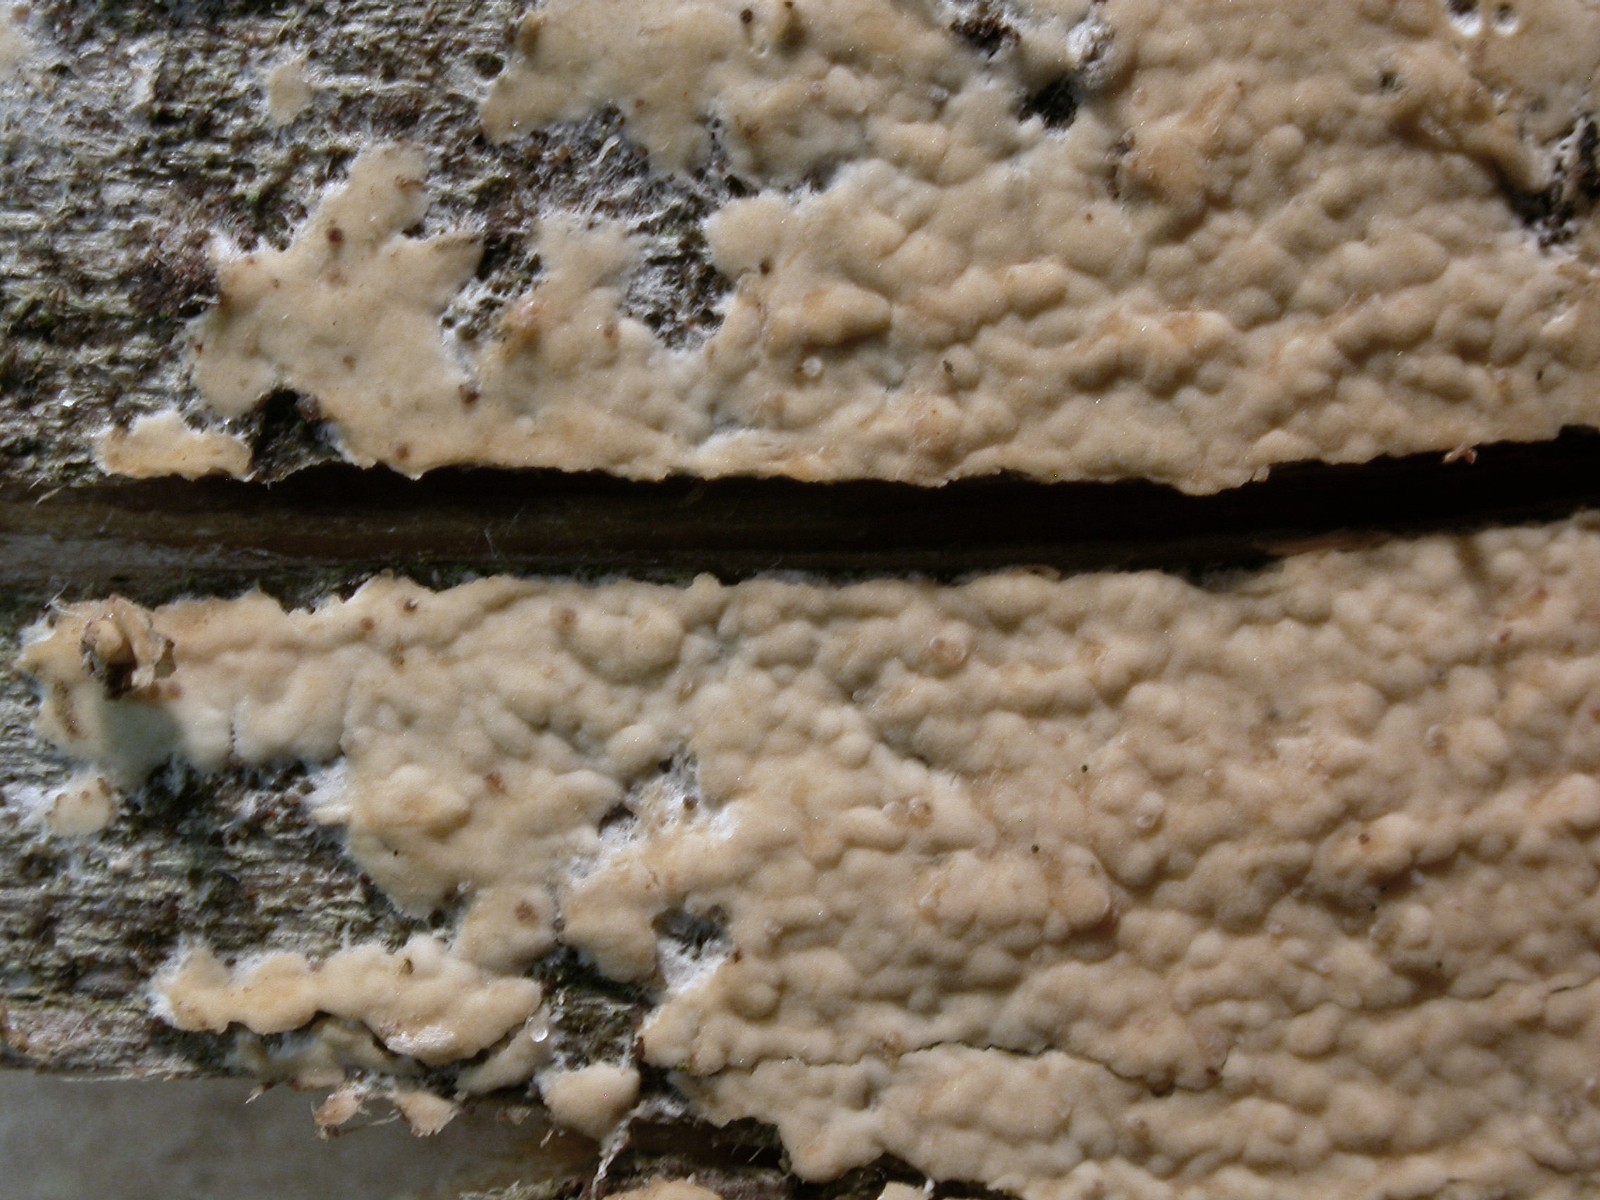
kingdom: Fungi
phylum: Basidiomycota
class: Agaricomycetes
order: Russulales
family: Peniophoraceae
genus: Gloiothele
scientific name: Gloiothele citrina
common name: citronskorpe
